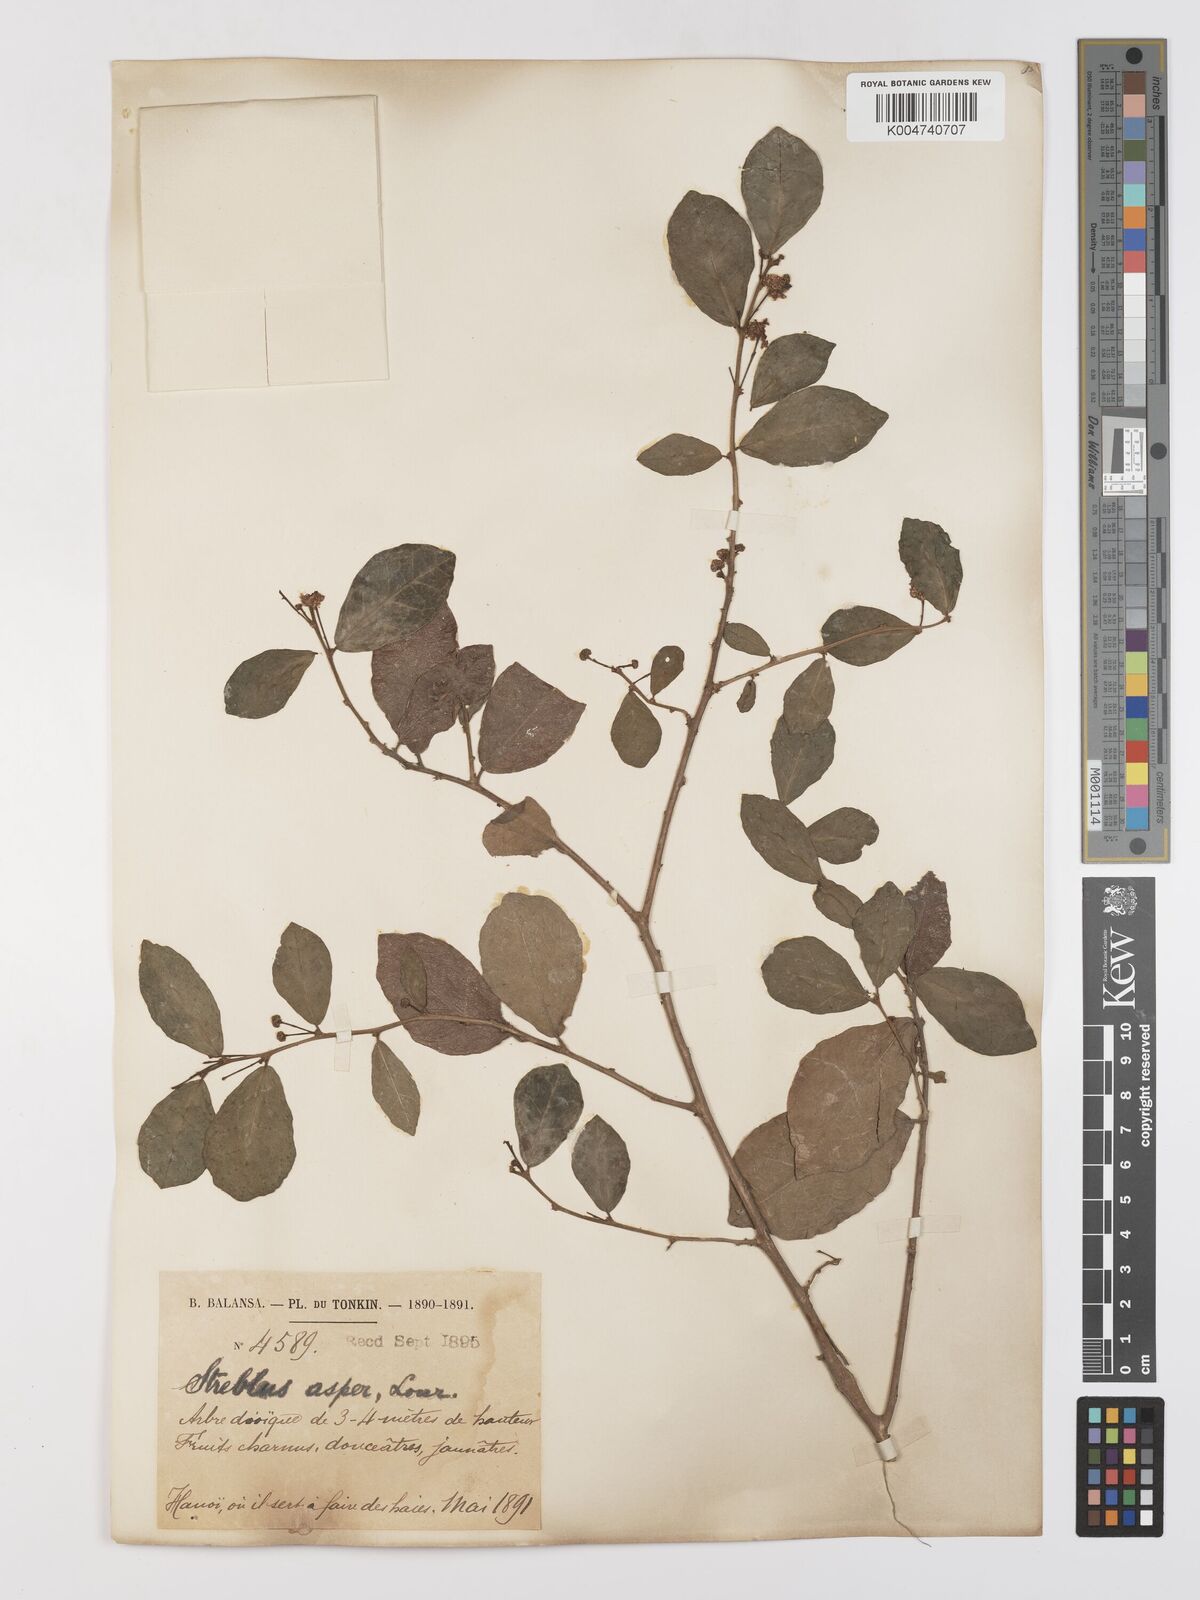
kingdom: Plantae
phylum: Tracheophyta
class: Magnoliopsida
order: Rosales
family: Moraceae
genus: Streblus
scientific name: Streblus asper
